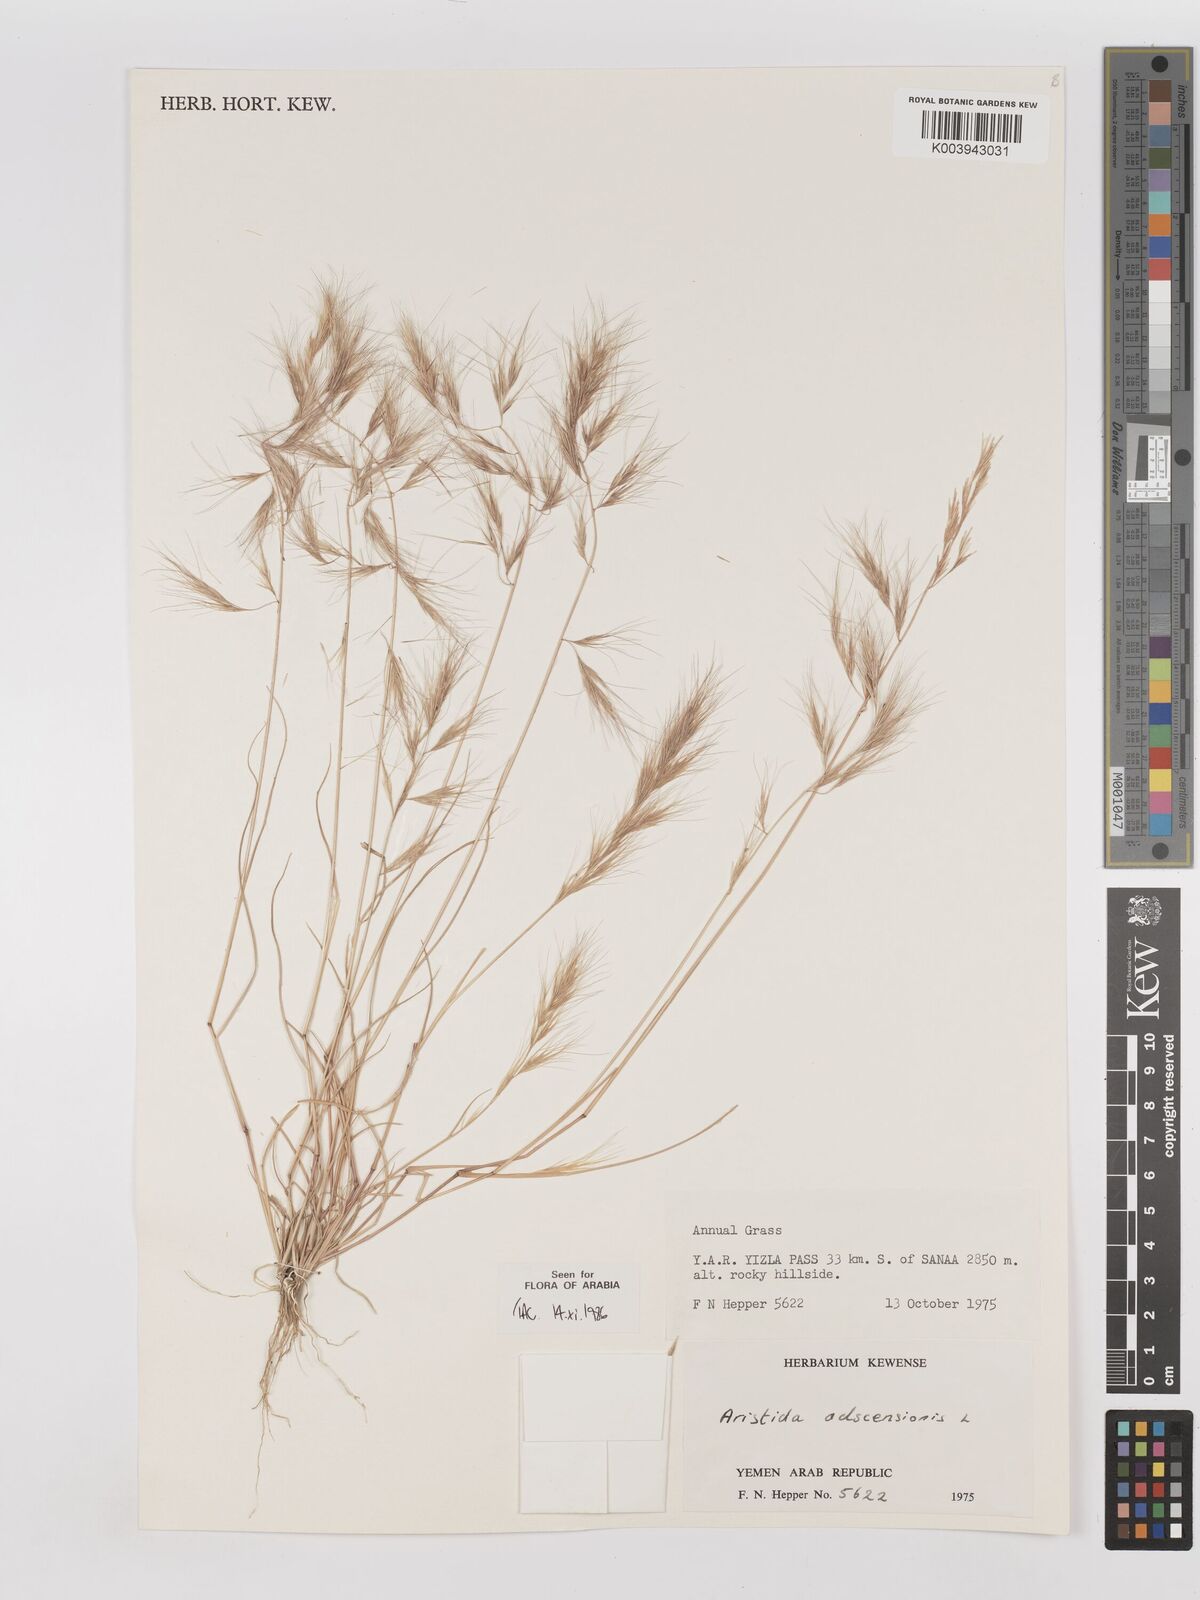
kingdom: Plantae
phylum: Tracheophyta
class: Liliopsida
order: Poales
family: Poaceae
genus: Aristida
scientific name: Aristida adscensionis
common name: Sixweeks threeawn
